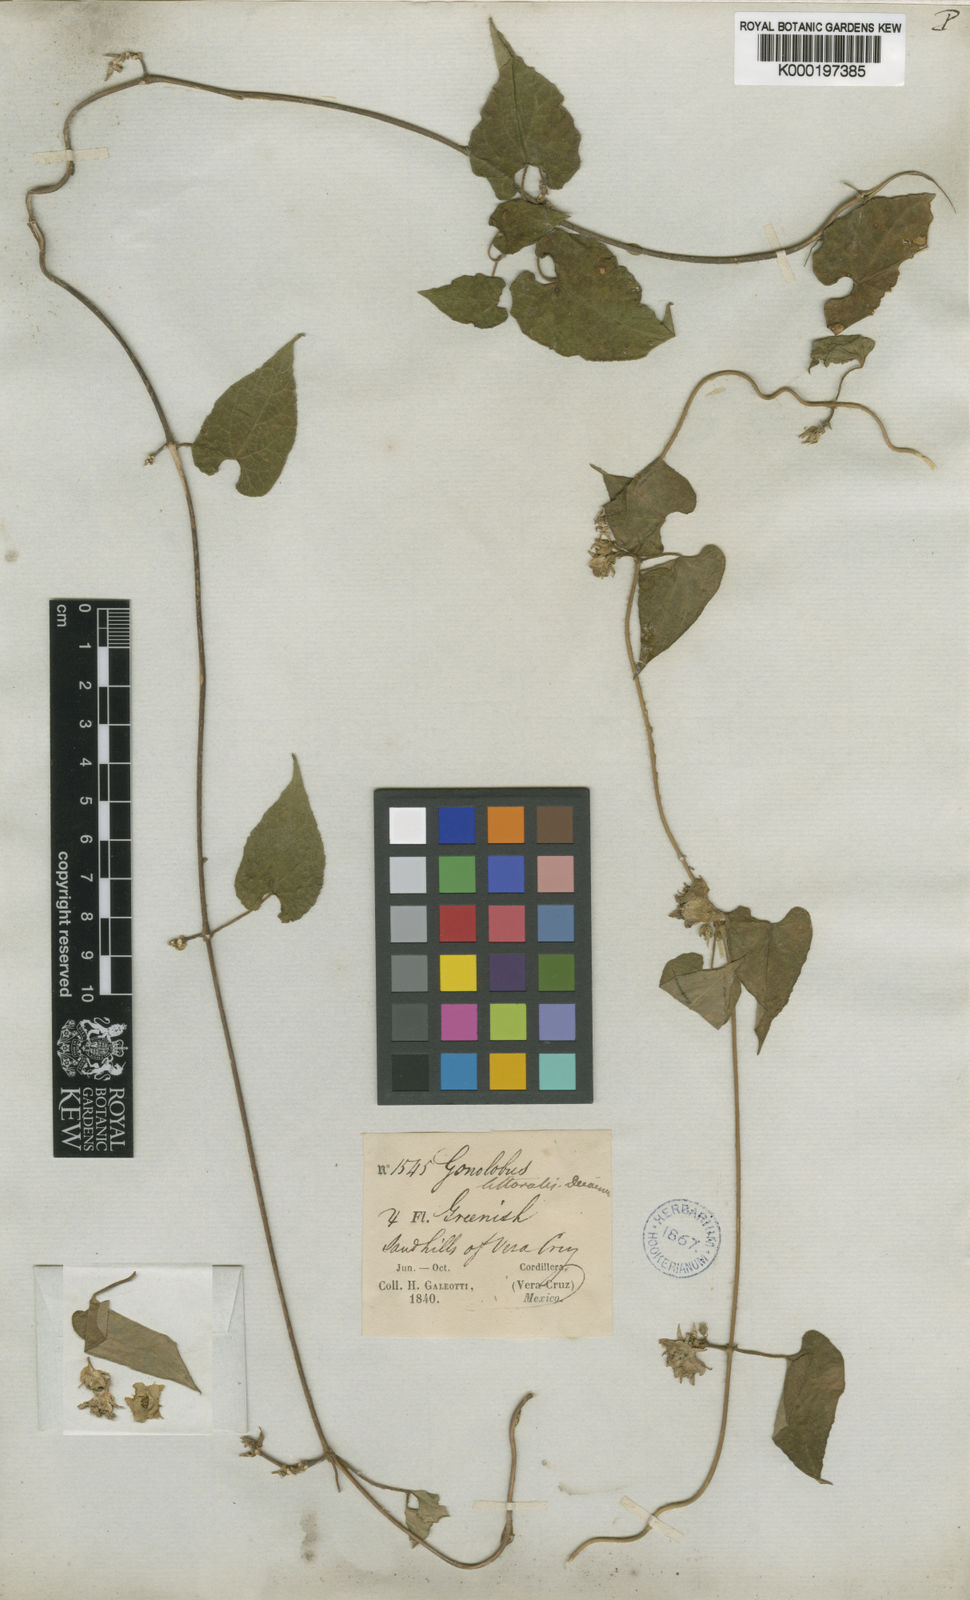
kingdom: Plantae
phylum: Tracheophyta
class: Magnoliopsida
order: Gentianales
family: Apocynaceae
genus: Dictyanthus
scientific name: Dictyanthus asper
